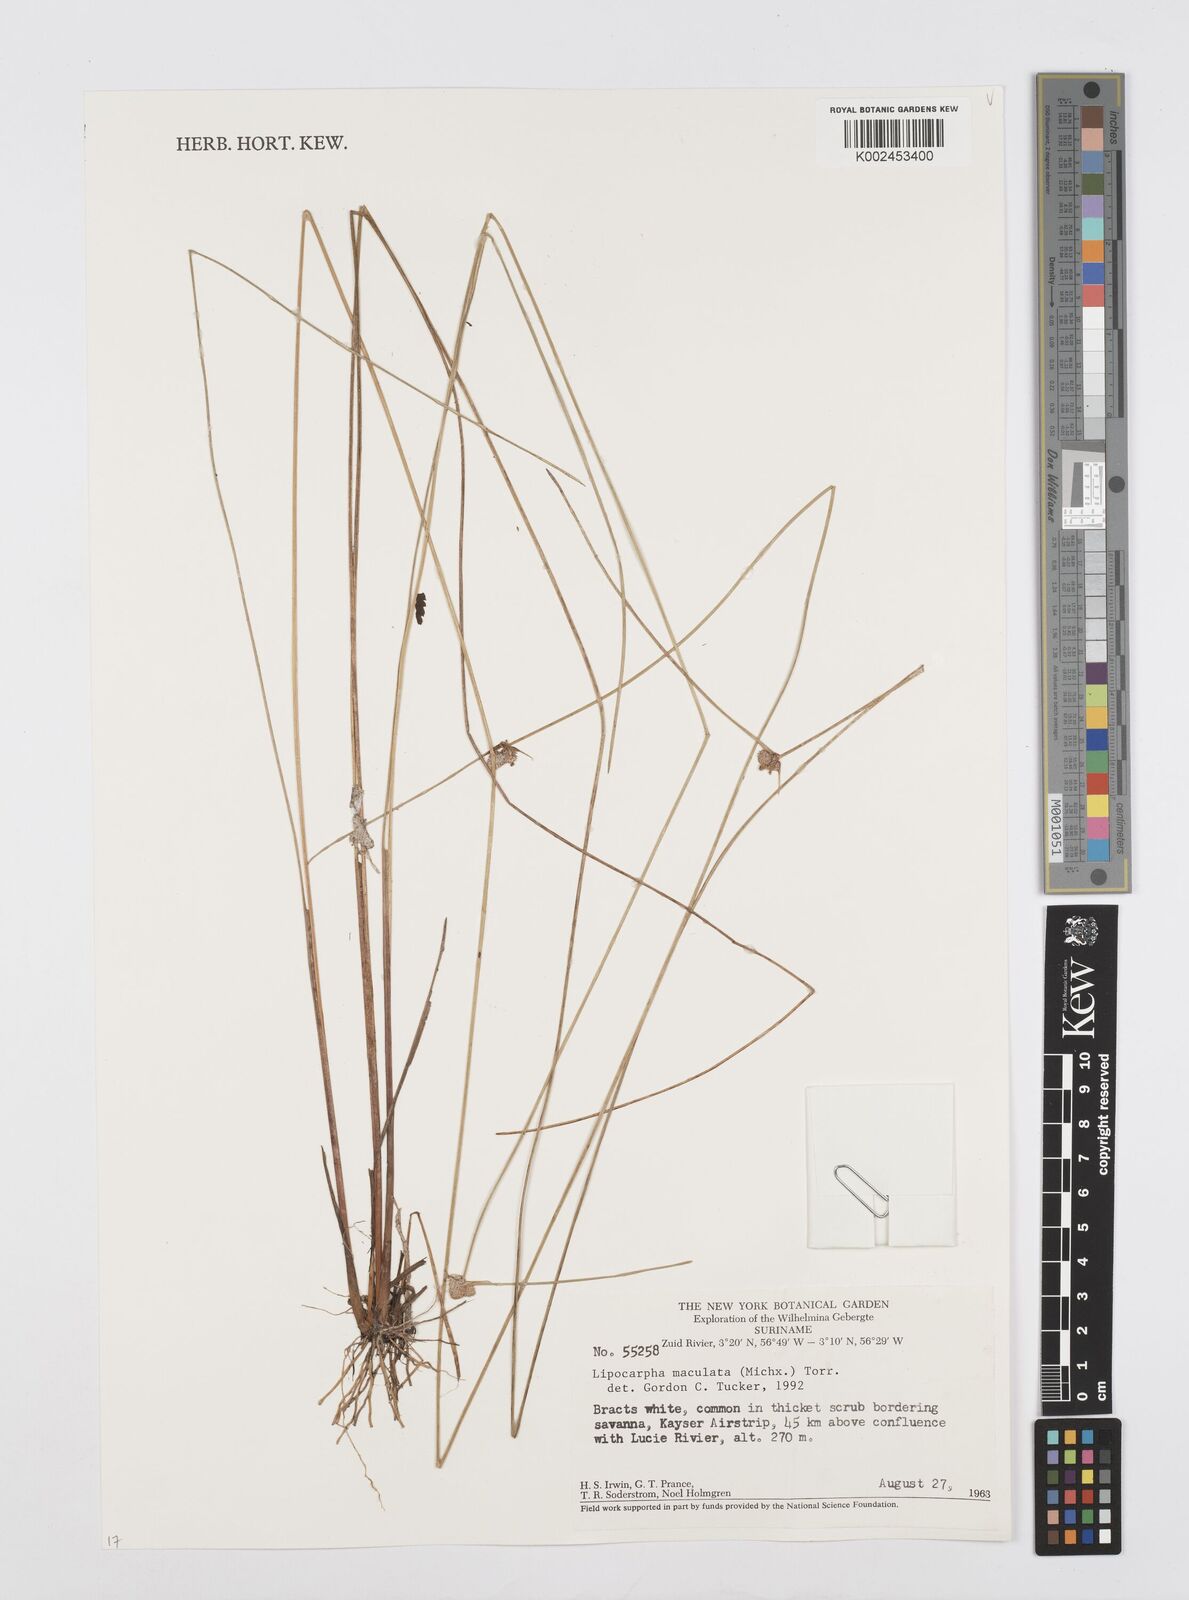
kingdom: Plantae
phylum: Tracheophyta
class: Liliopsida
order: Poales
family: Cyperaceae
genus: Cyperus
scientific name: Cyperus maculatus
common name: Maculated sedge
